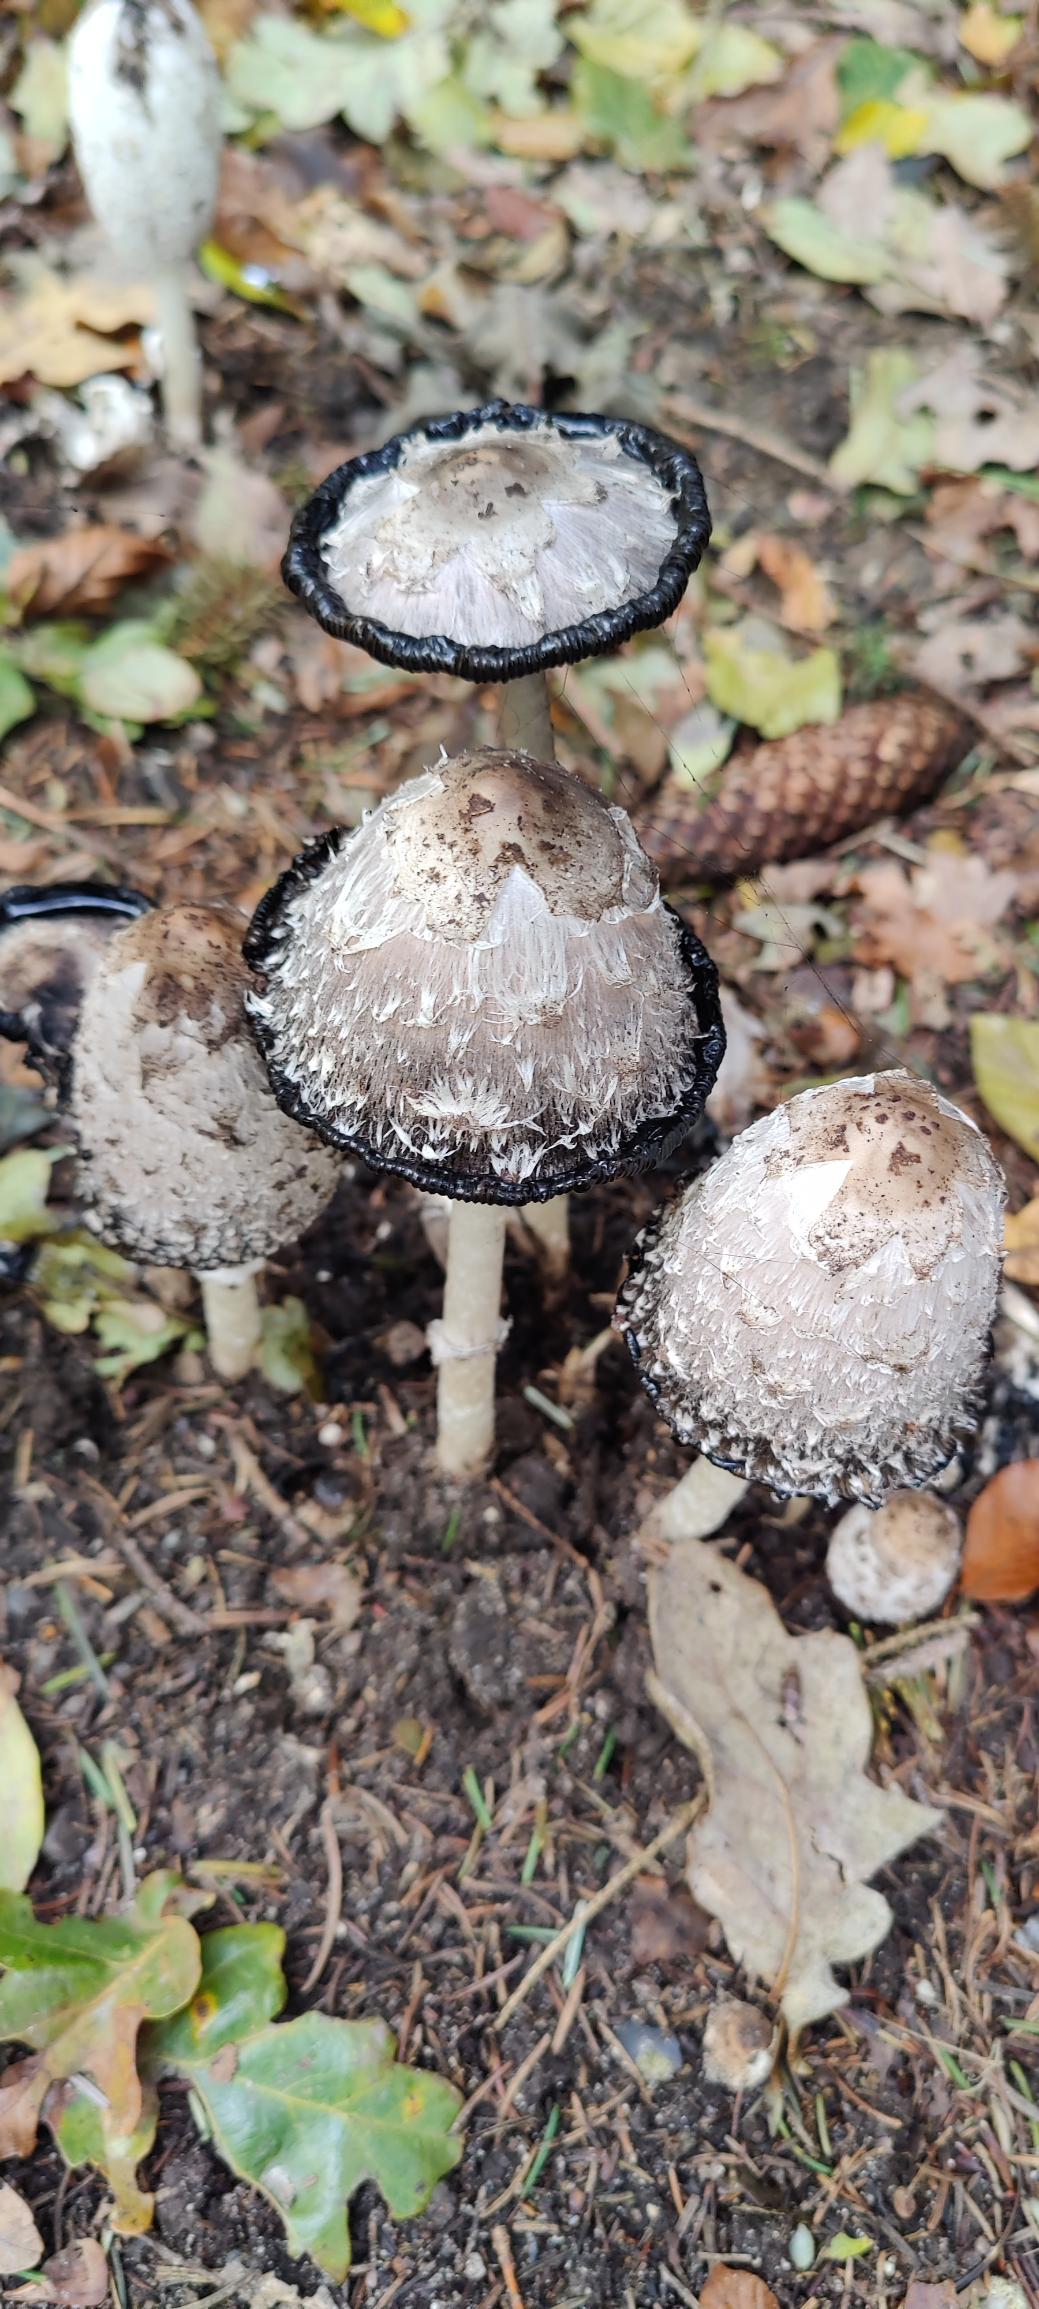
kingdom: Fungi
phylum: Basidiomycota
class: Agaricomycetes
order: Agaricales
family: Agaricaceae
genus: Coprinus
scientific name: Coprinus comatus
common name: Stor parykhat
